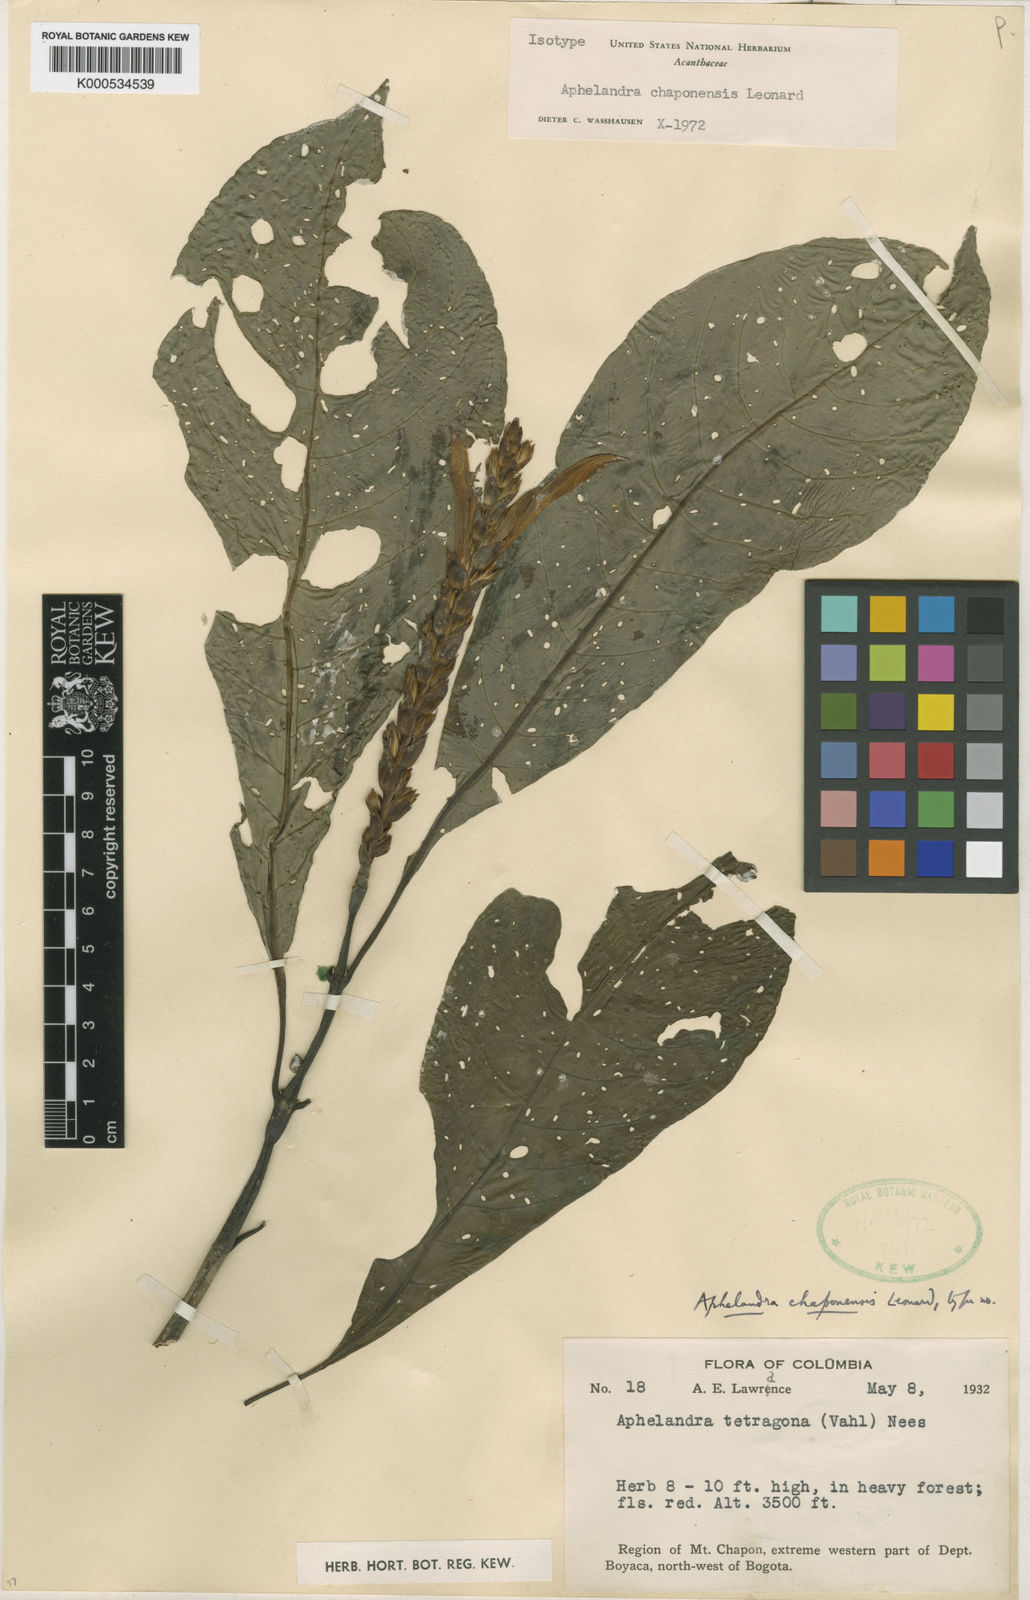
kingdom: Plantae
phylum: Tracheophyta
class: Magnoliopsida
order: Lamiales
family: Acanthaceae
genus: Aphelandra
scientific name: Aphelandra chaponensis
